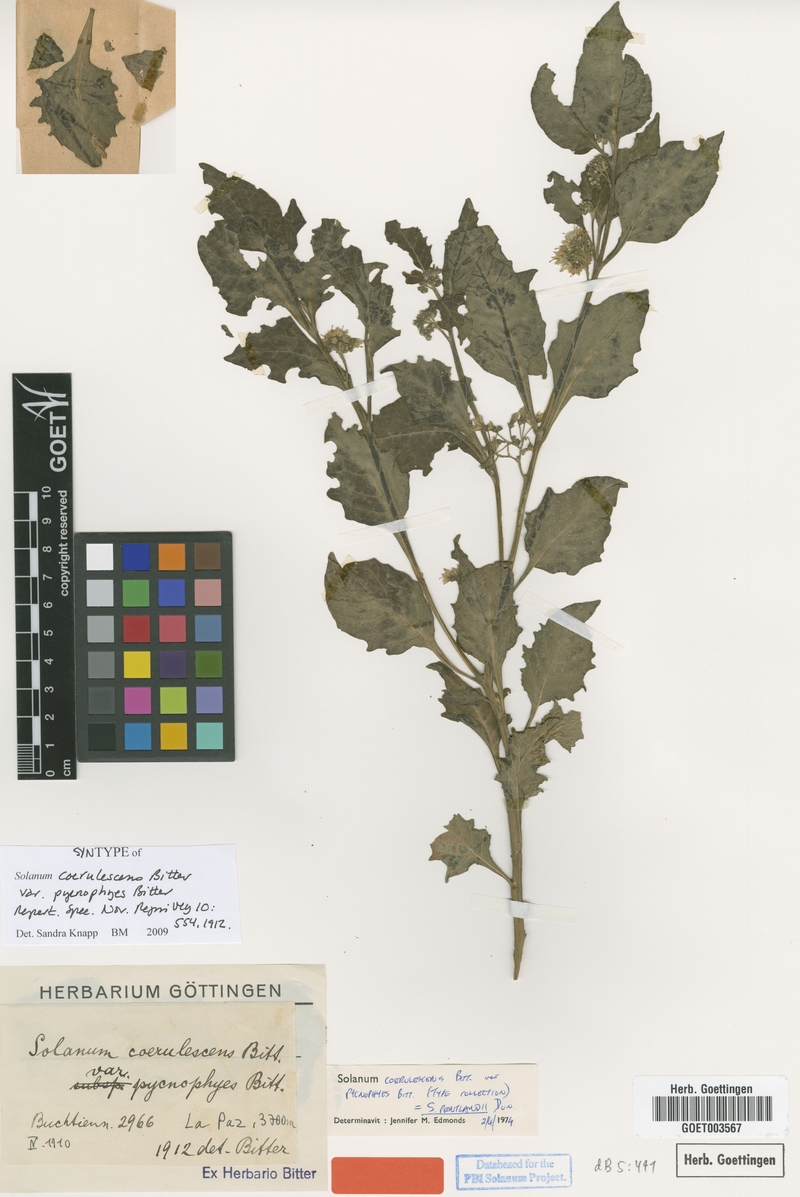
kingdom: Plantae
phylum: Tracheophyta
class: Magnoliopsida
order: Solanales
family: Solanaceae
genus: Solanum
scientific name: Solanum pentlandii
